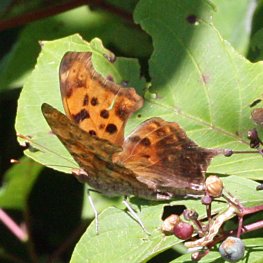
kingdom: Animalia
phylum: Arthropoda
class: Insecta
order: Lepidoptera
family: Nymphalidae
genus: Polygonia
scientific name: Polygonia interrogationis
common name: Question Mark
